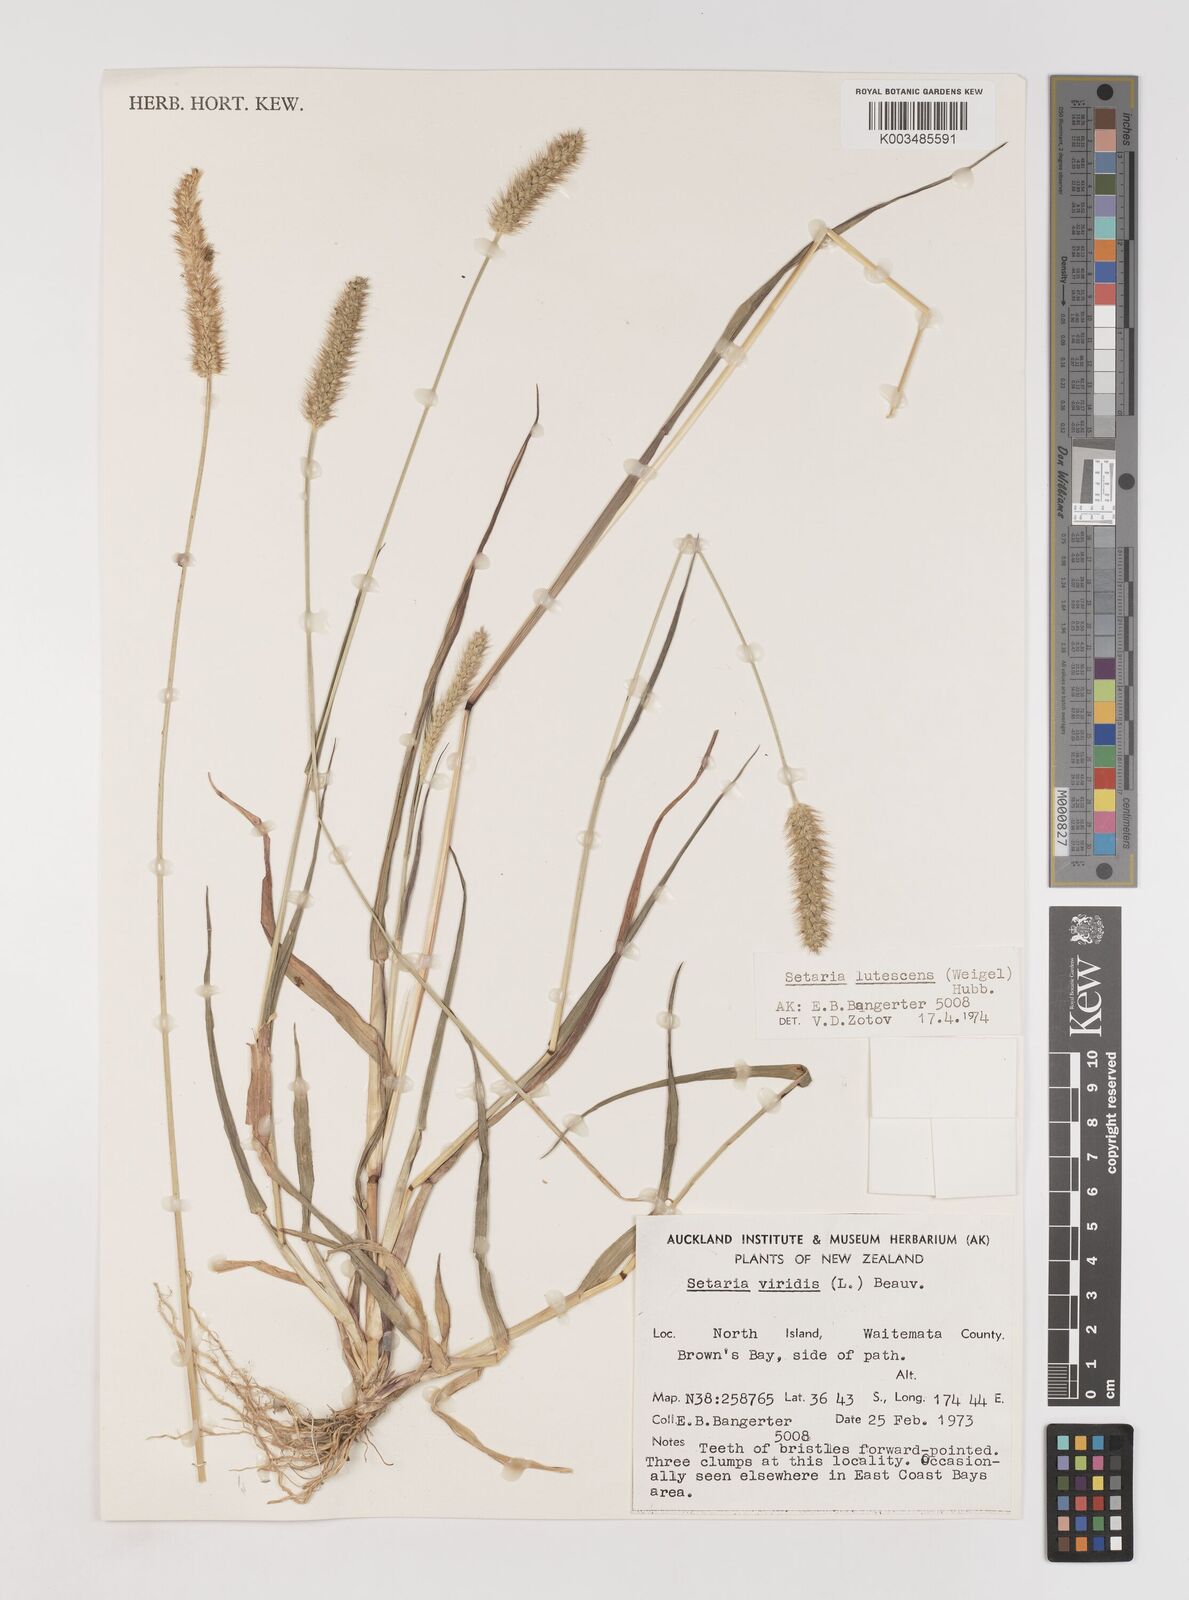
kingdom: Plantae
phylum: Tracheophyta
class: Liliopsida
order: Poales
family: Poaceae
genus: Setaria
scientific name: Setaria pumila
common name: Yellow bristle-grass
